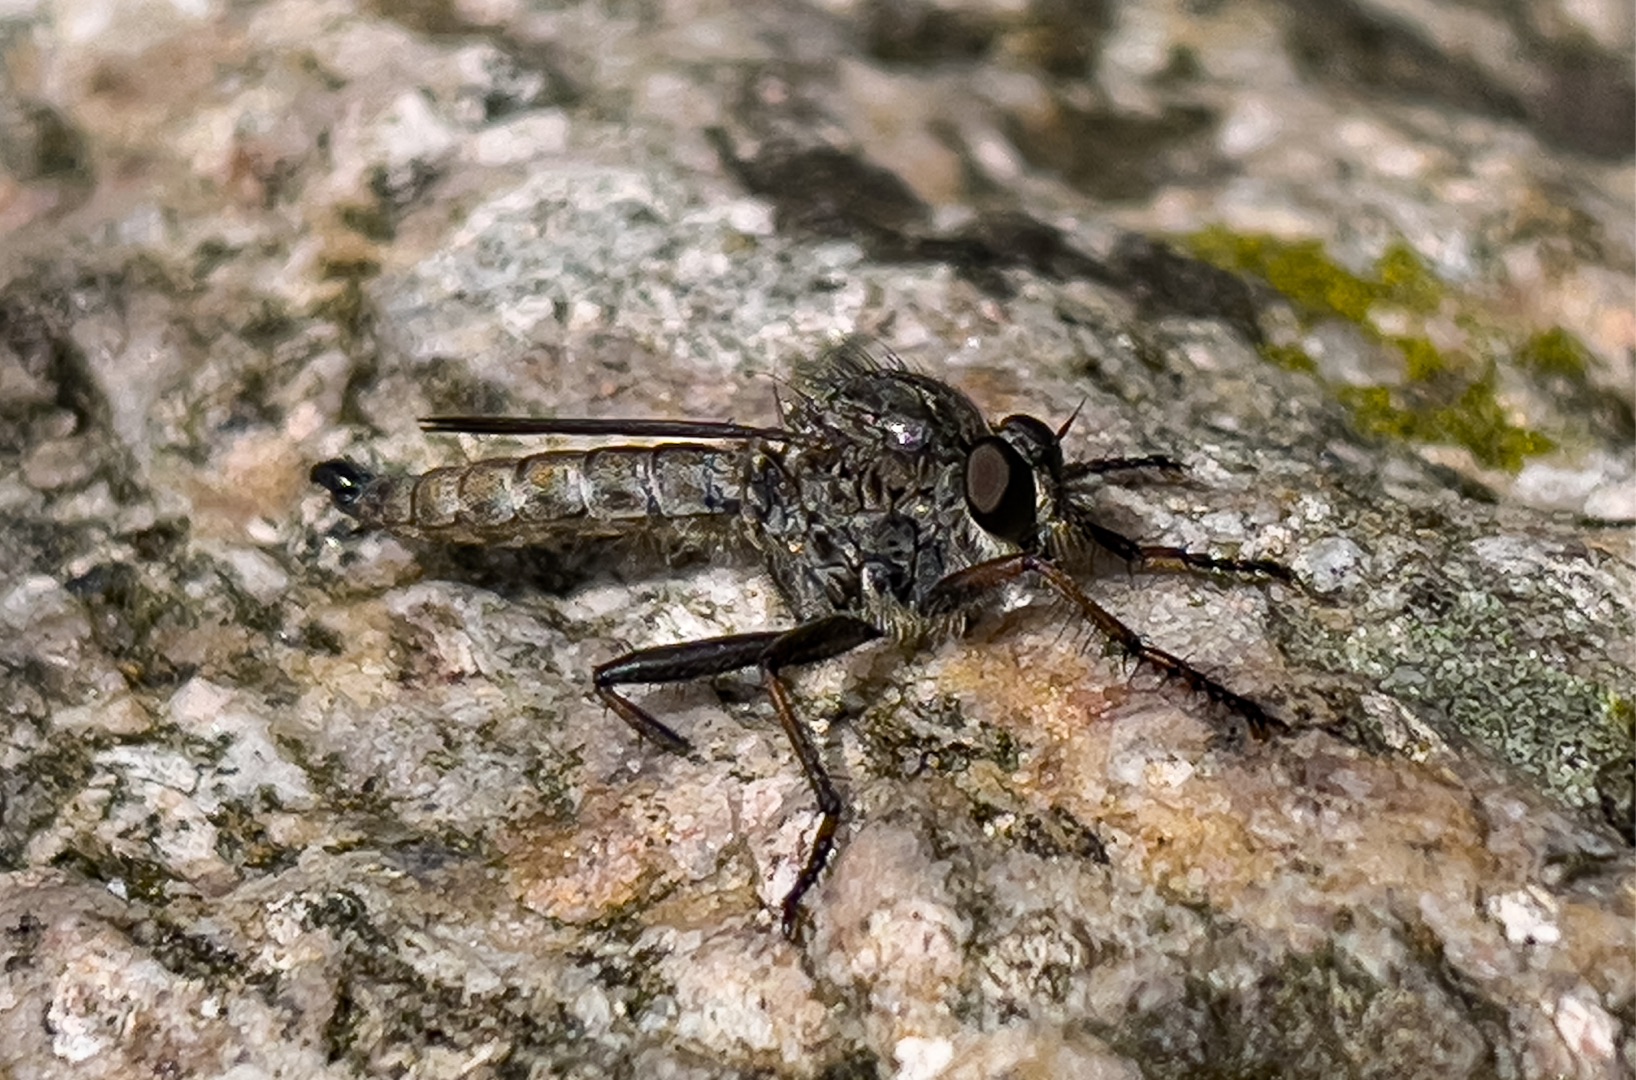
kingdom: Animalia
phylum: Arthropoda
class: Insecta
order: Diptera
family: Asilidae
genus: Machimus
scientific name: Machimus atricapillus
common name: Sort hårrovflue
